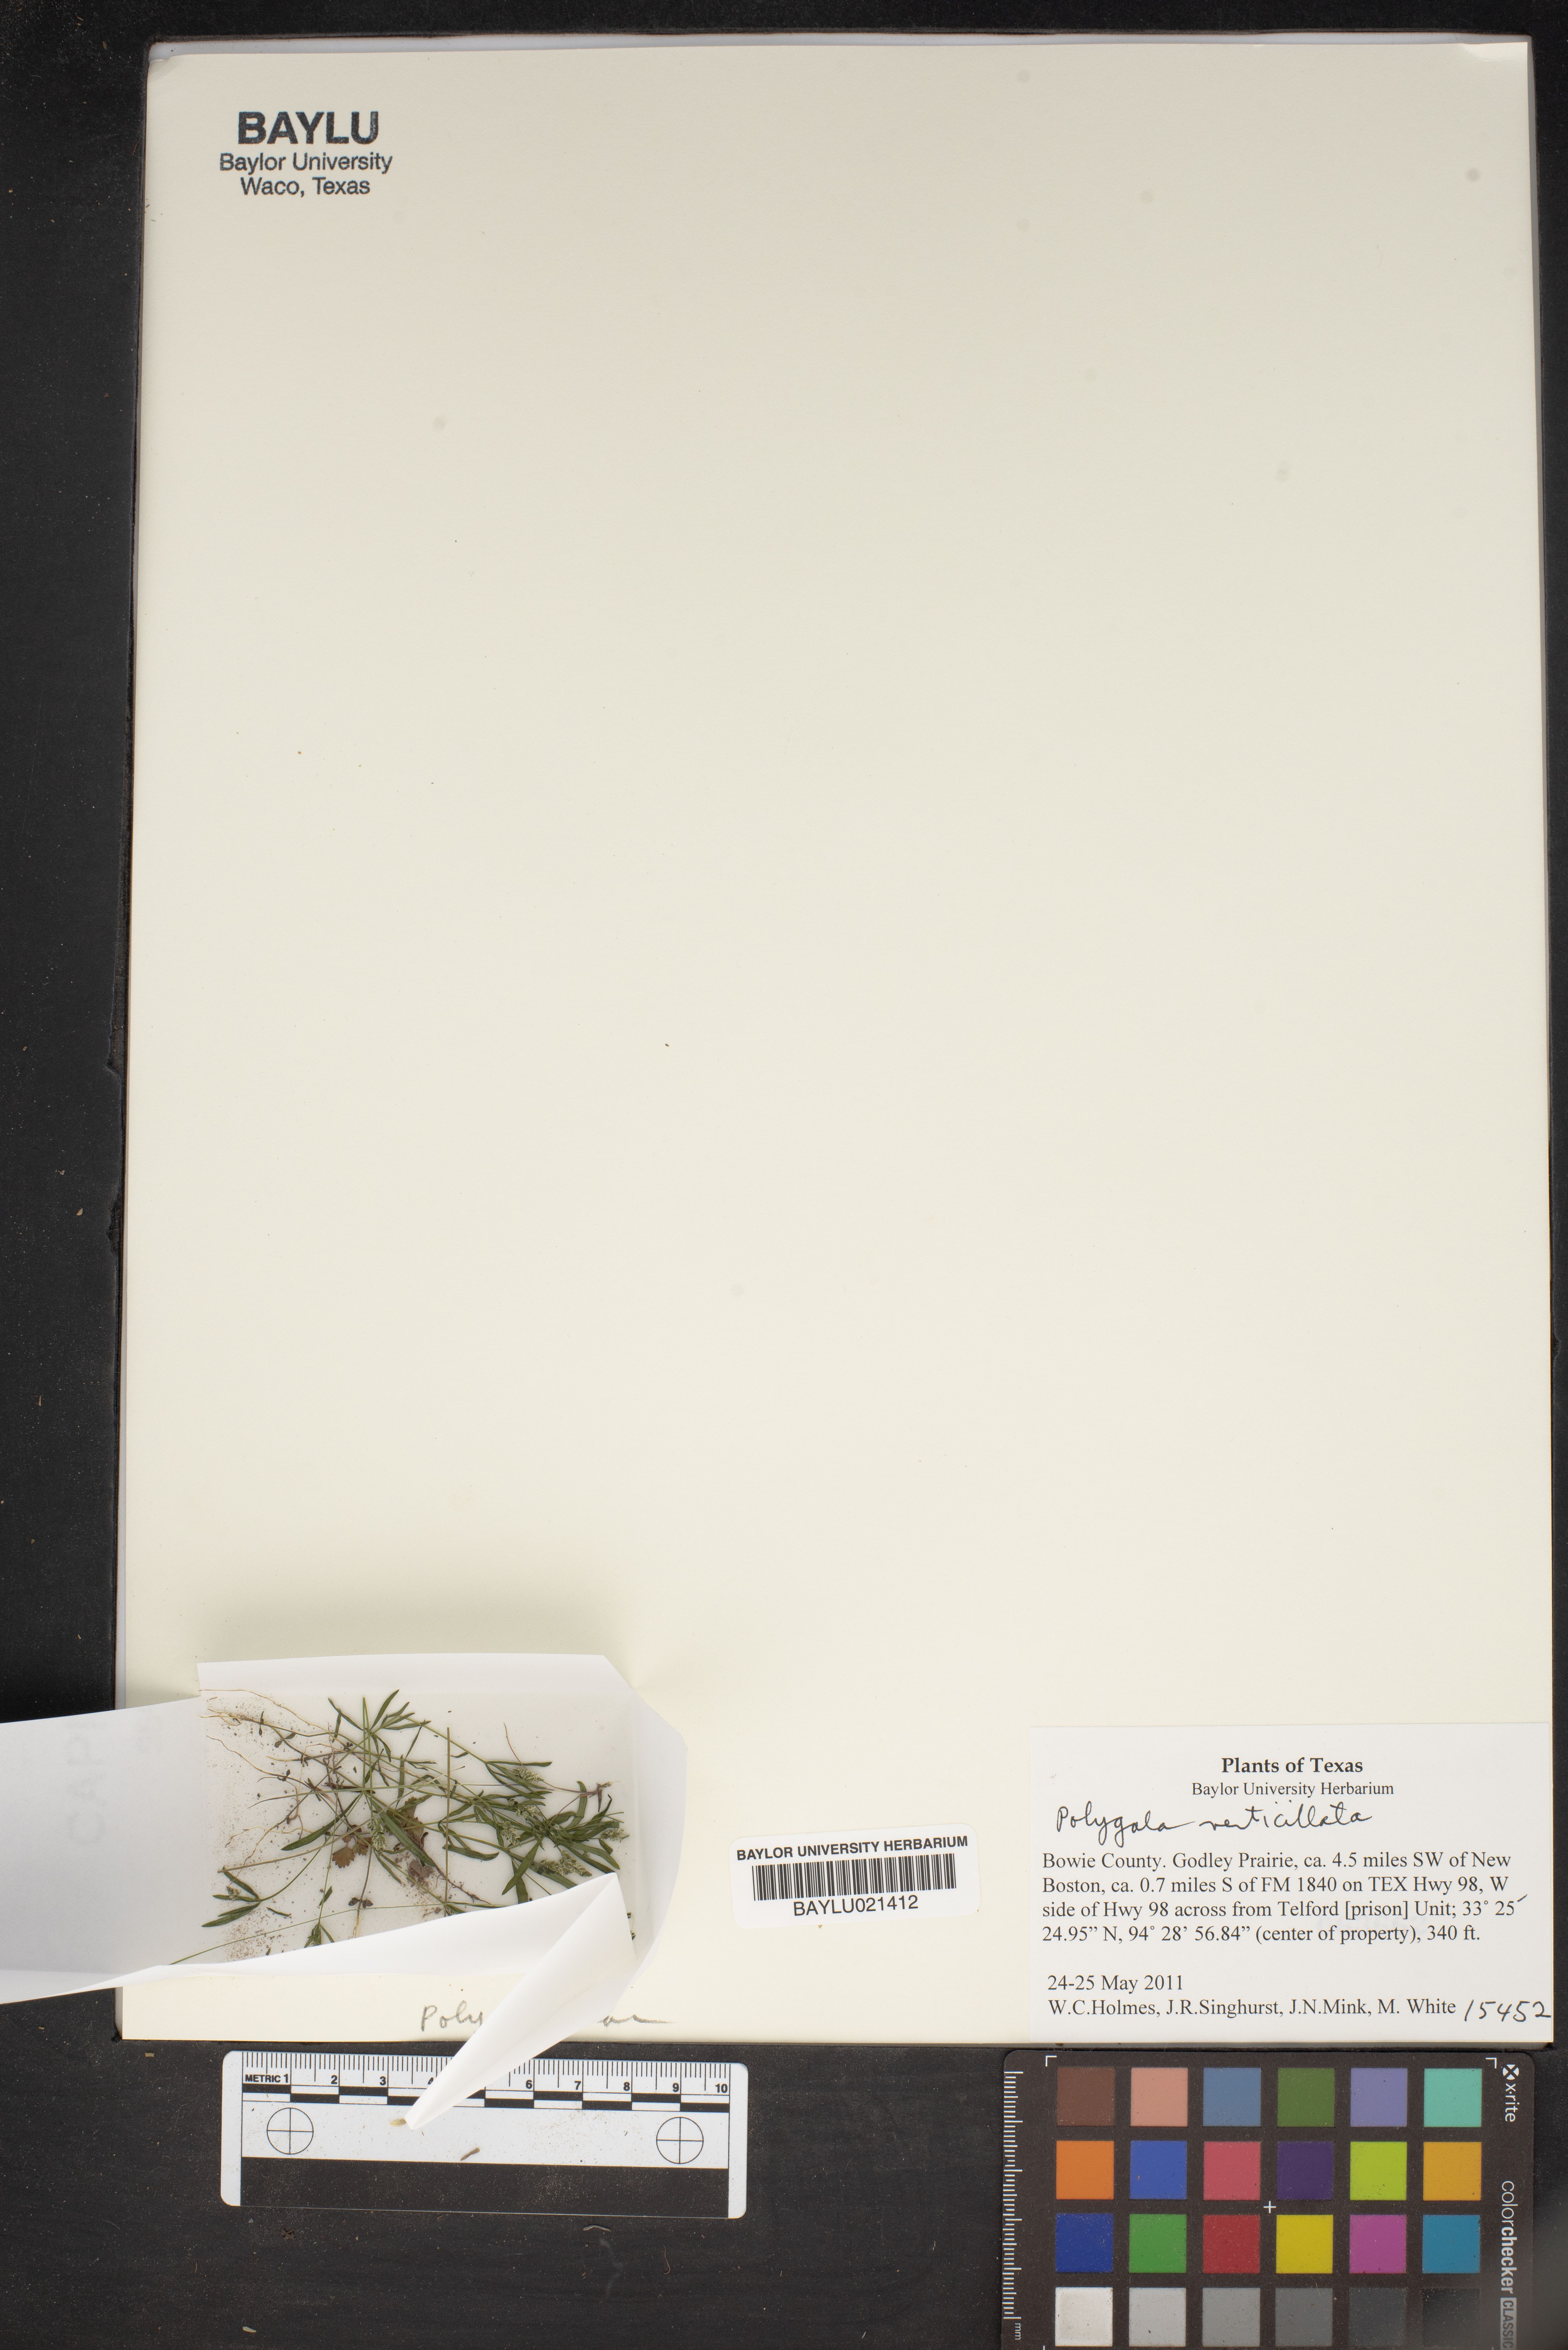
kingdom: Plantae
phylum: Tracheophyta
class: Magnoliopsida
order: Fabales
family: Polygalaceae
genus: Polygala
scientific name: Polygala verticillata
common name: Whorl milkwort
